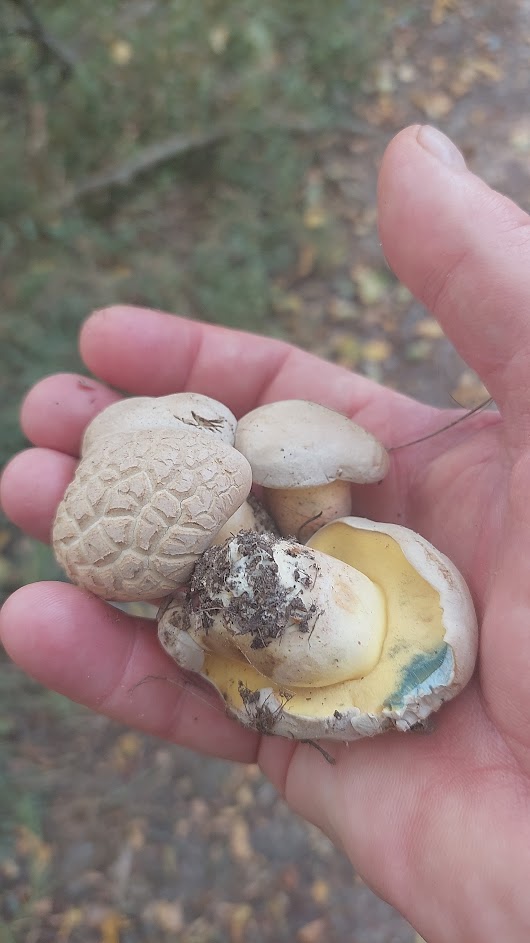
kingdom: Fungi
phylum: Basidiomycota
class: Agaricomycetes
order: Boletales
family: Boletaceae
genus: Caloboletus
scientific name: Caloboletus radicans
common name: rod-rørhat
